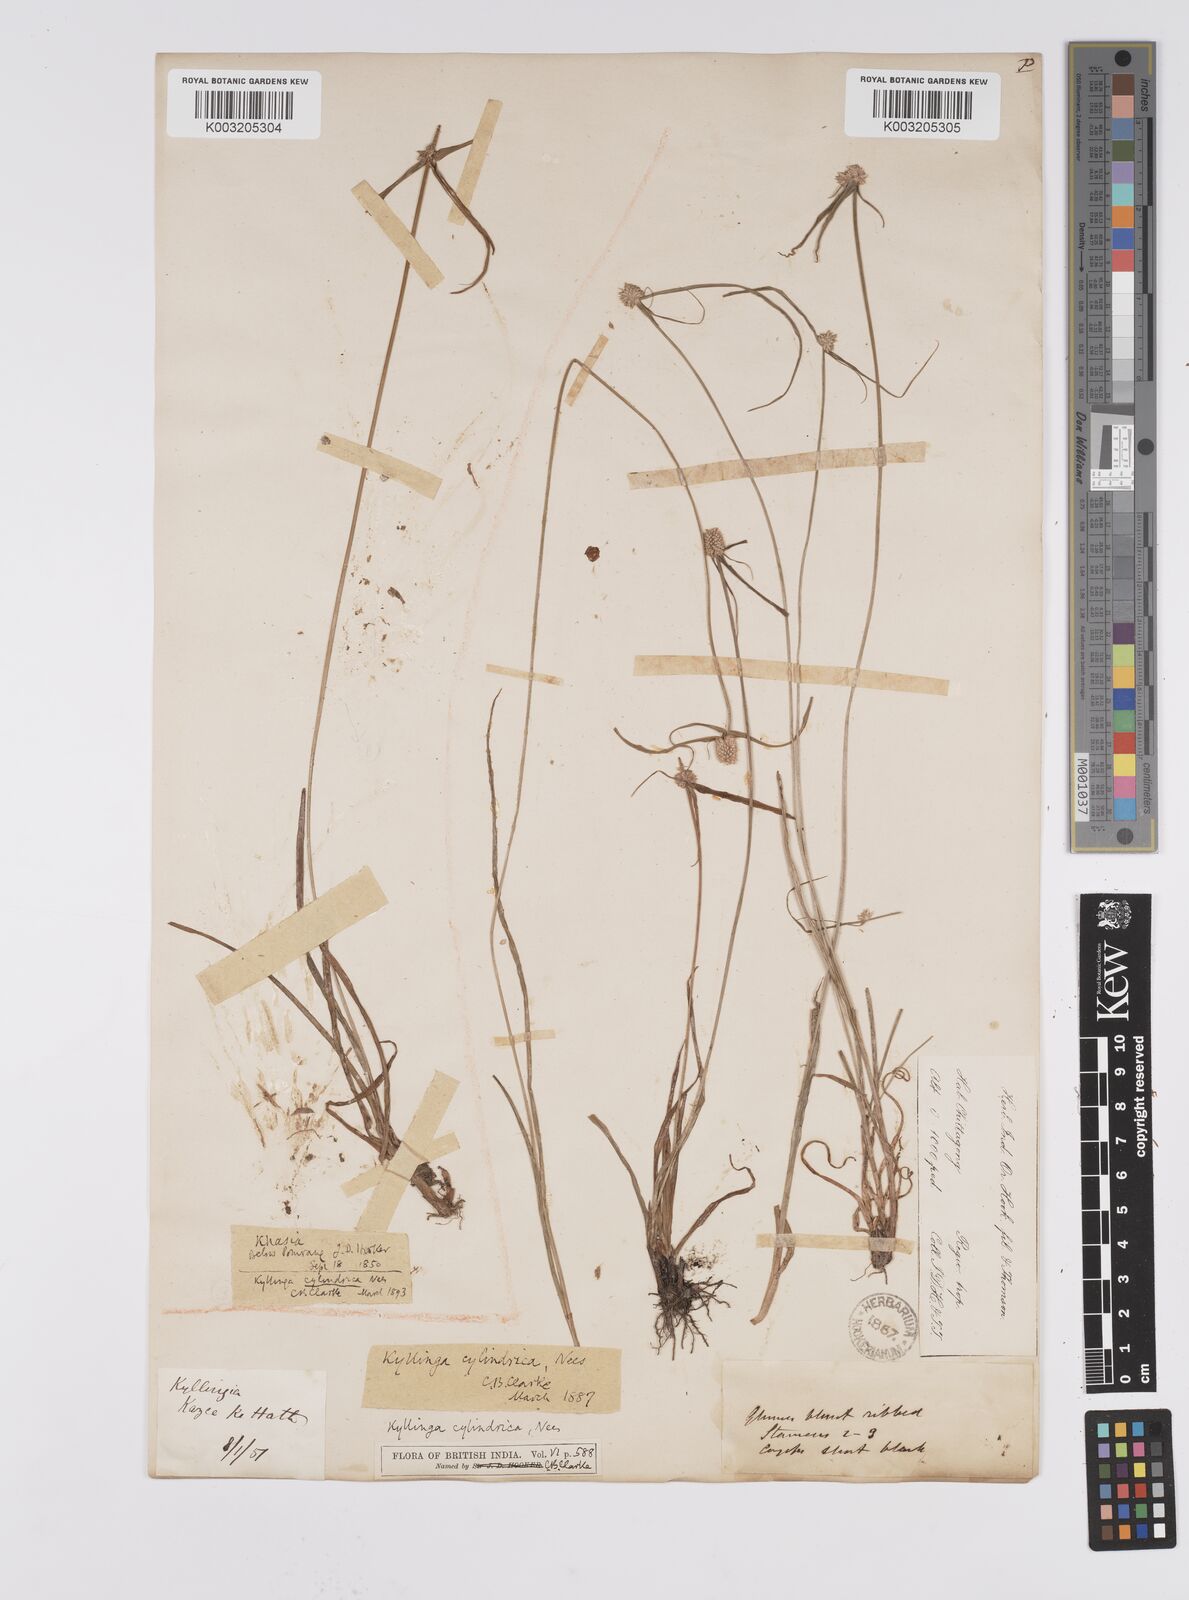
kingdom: Plantae
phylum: Tracheophyta
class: Liliopsida
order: Poales
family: Cyperaceae
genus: Cyperus
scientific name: Cyperus
